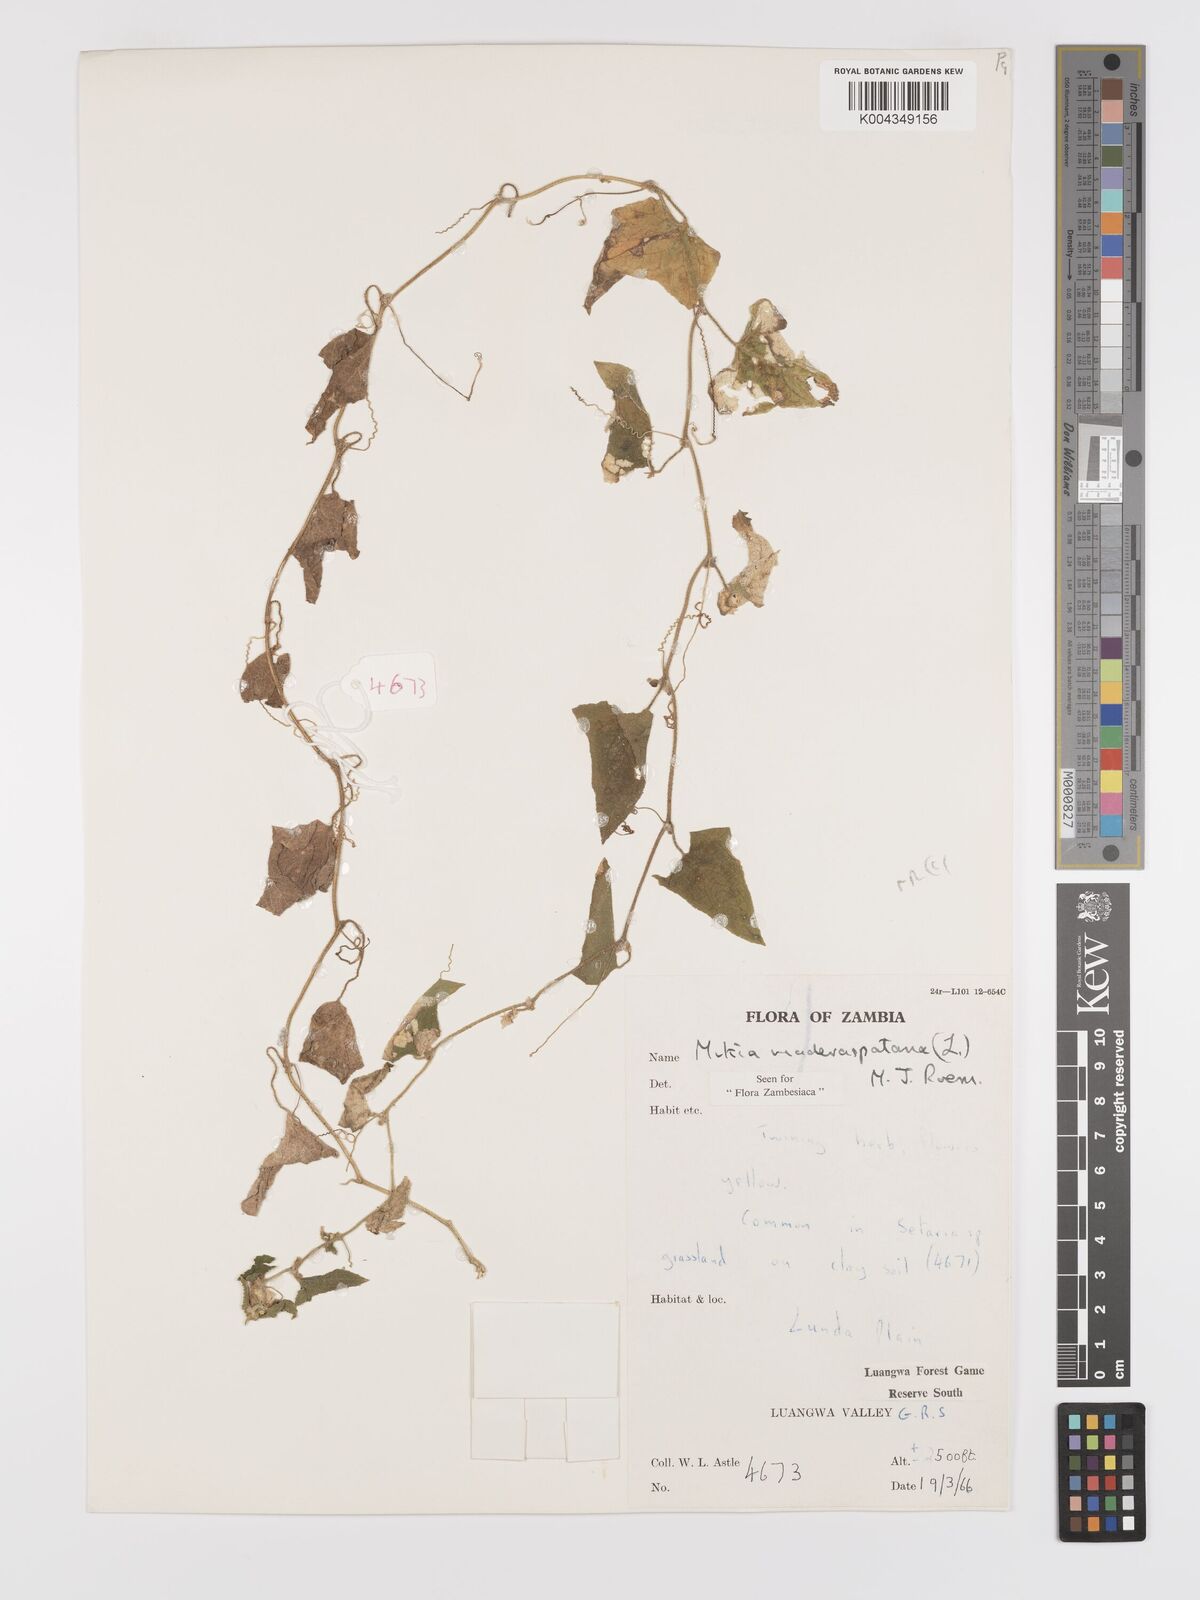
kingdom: Plantae
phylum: Tracheophyta
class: Magnoliopsida
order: Cucurbitales
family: Cucurbitaceae
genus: Cucumis
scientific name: Cucumis maderaspatanus
